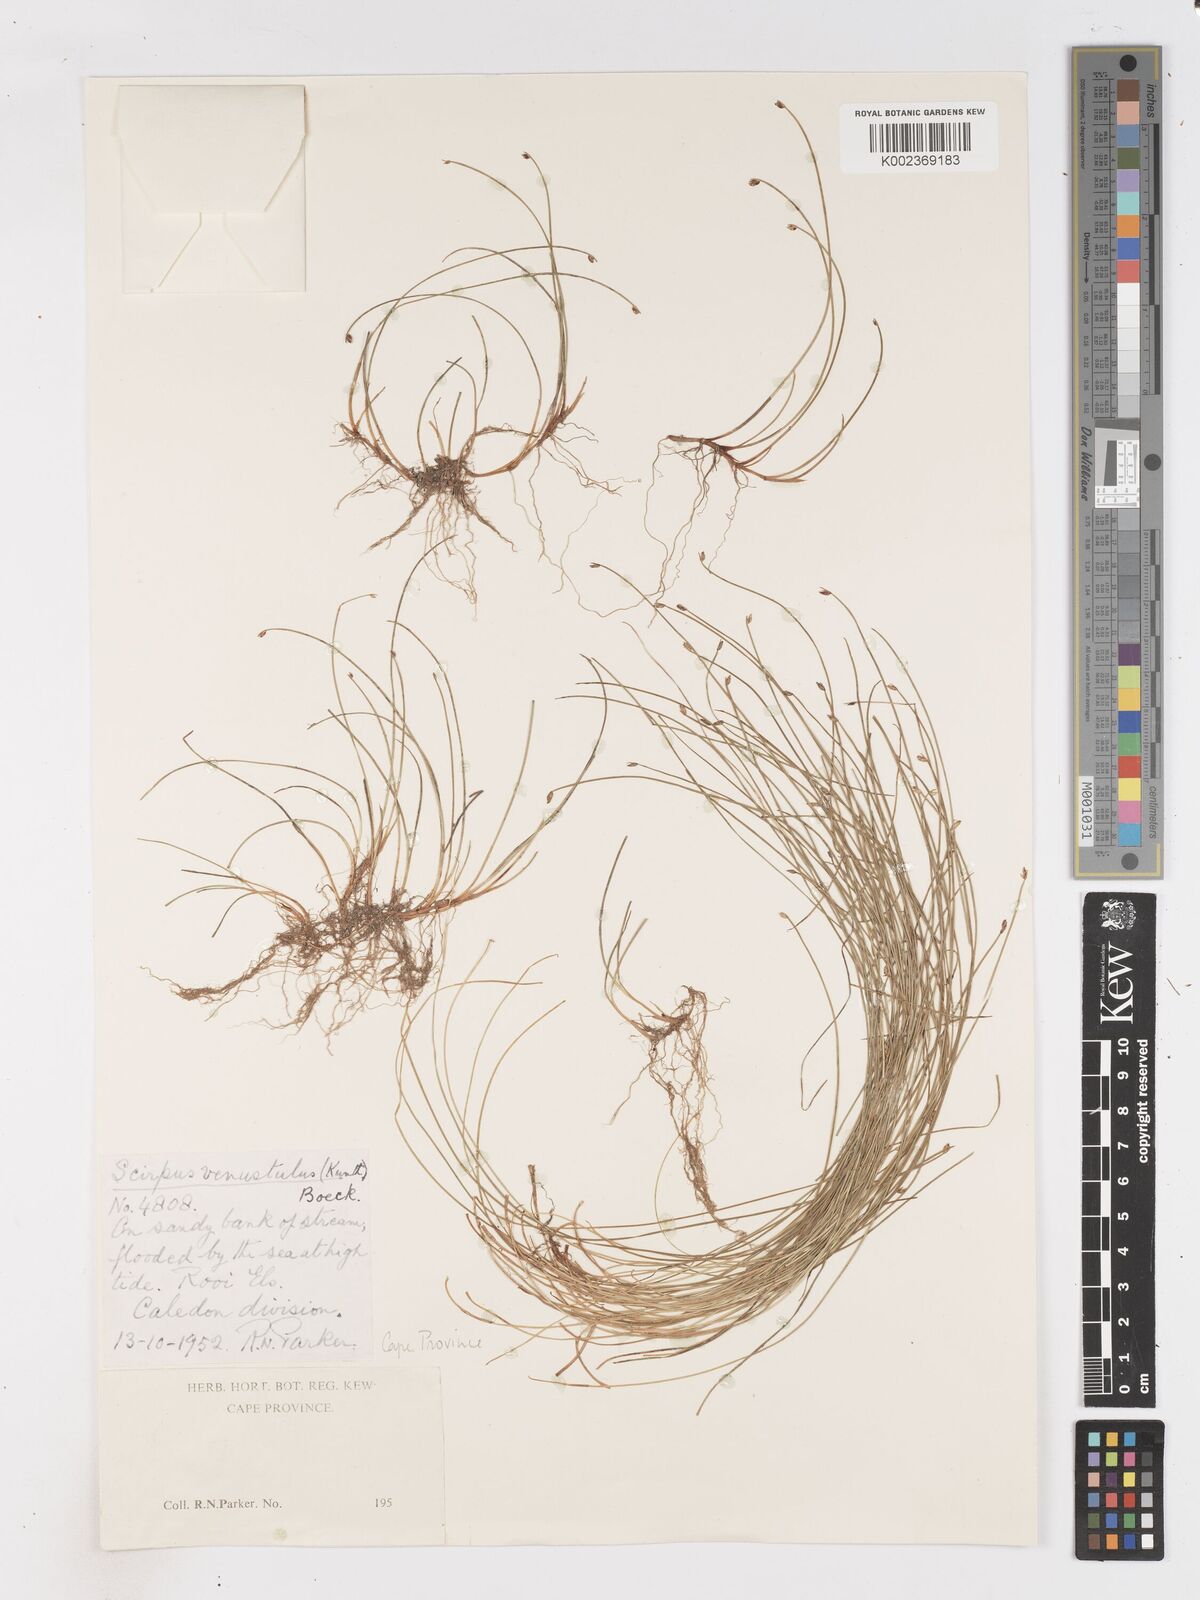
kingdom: Plantae
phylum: Tracheophyta
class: Liliopsida
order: Poales
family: Cyperaceae
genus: Isolepis
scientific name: Isolepis venustula
